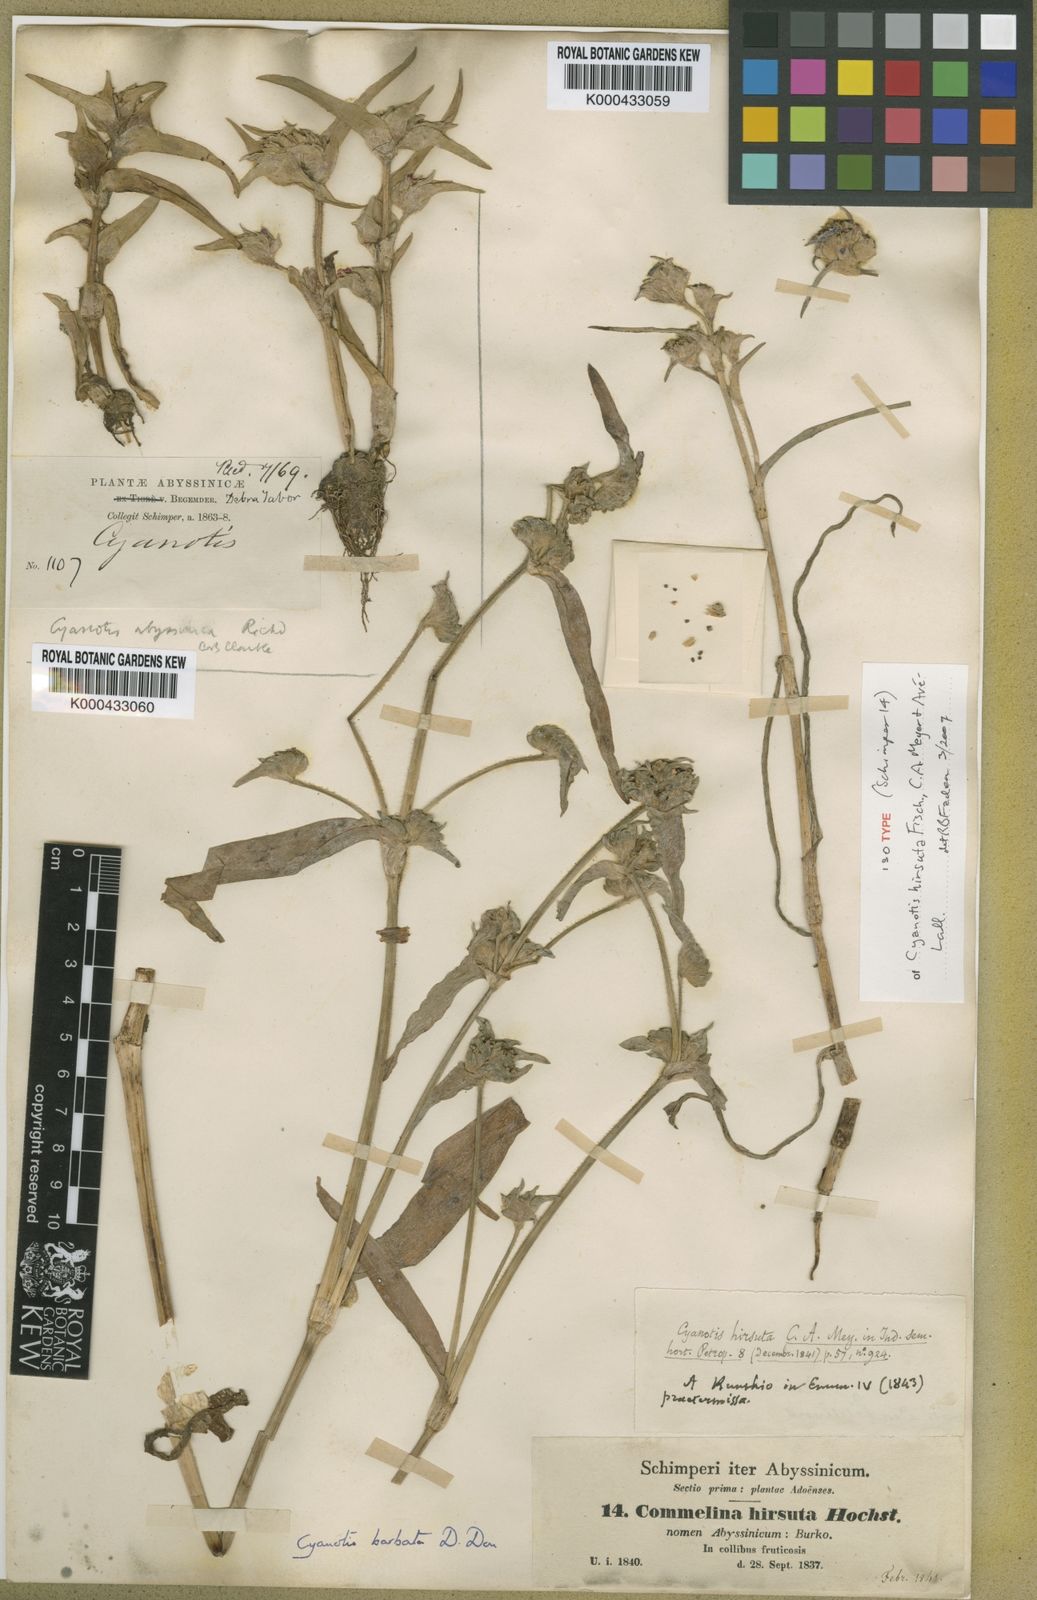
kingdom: Plantae
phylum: Tracheophyta
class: Liliopsida
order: Commelinales
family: Commelinaceae
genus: Cyanotis
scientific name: Cyanotis vaga
